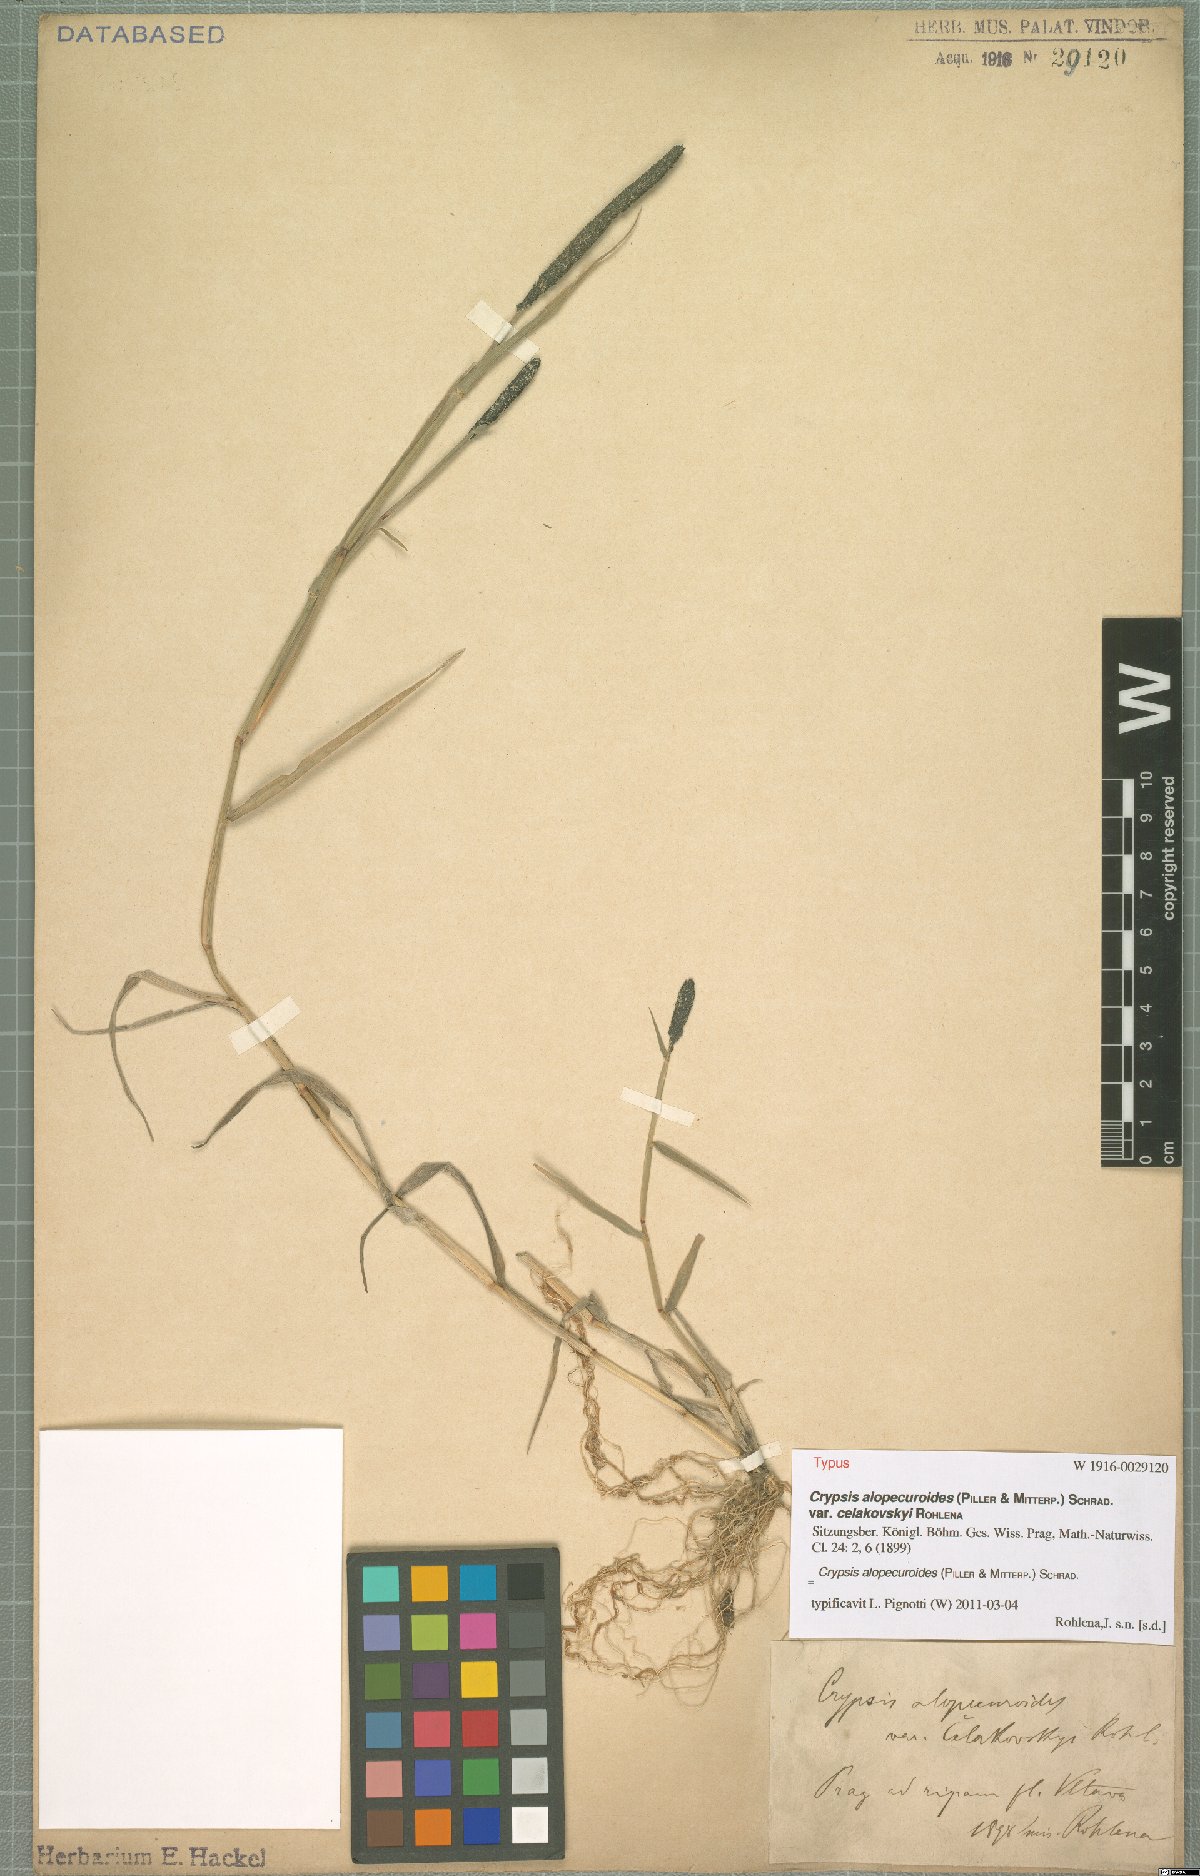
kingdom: Plantae
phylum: Tracheophyta
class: Liliopsida
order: Poales
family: Poaceae
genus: Sporobolus
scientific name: Sporobolus alopecuroides
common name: Foxtail pricklegrass
